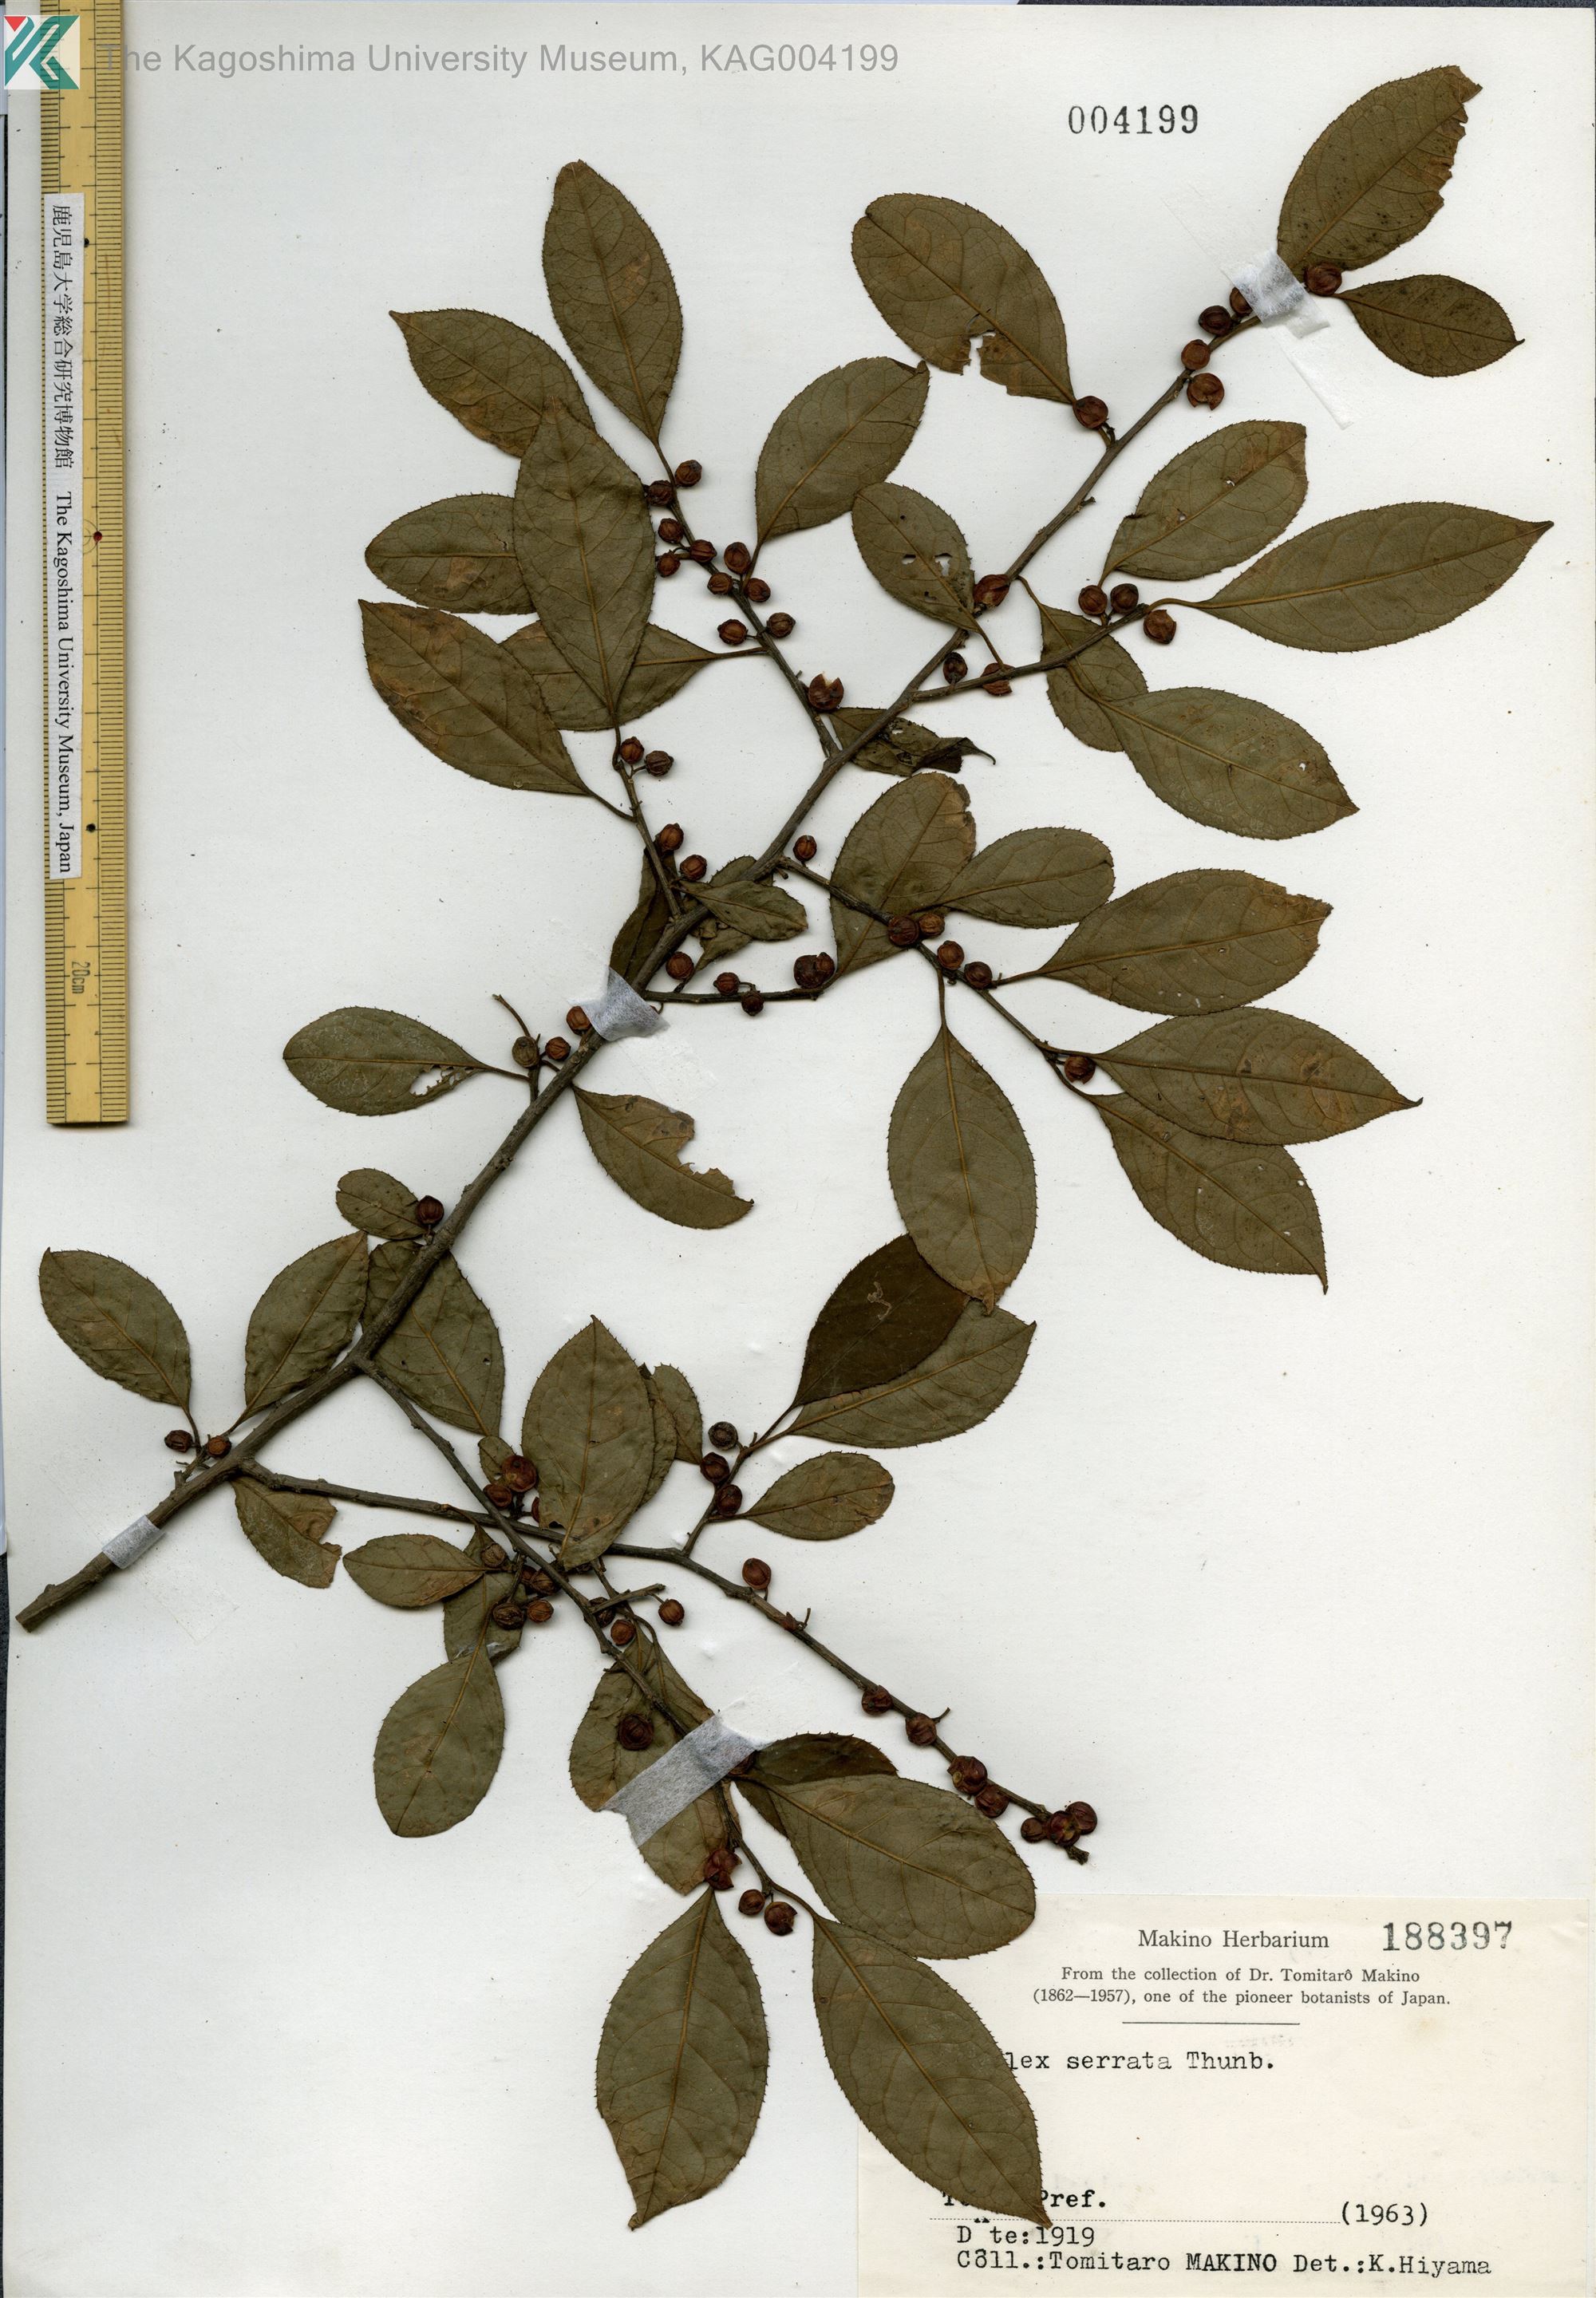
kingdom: Plantae
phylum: Tracheophyta
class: Magnoliopsida
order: Aquifoliales
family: Aquifoliaceae
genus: Ilex
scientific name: Ilex serrata
